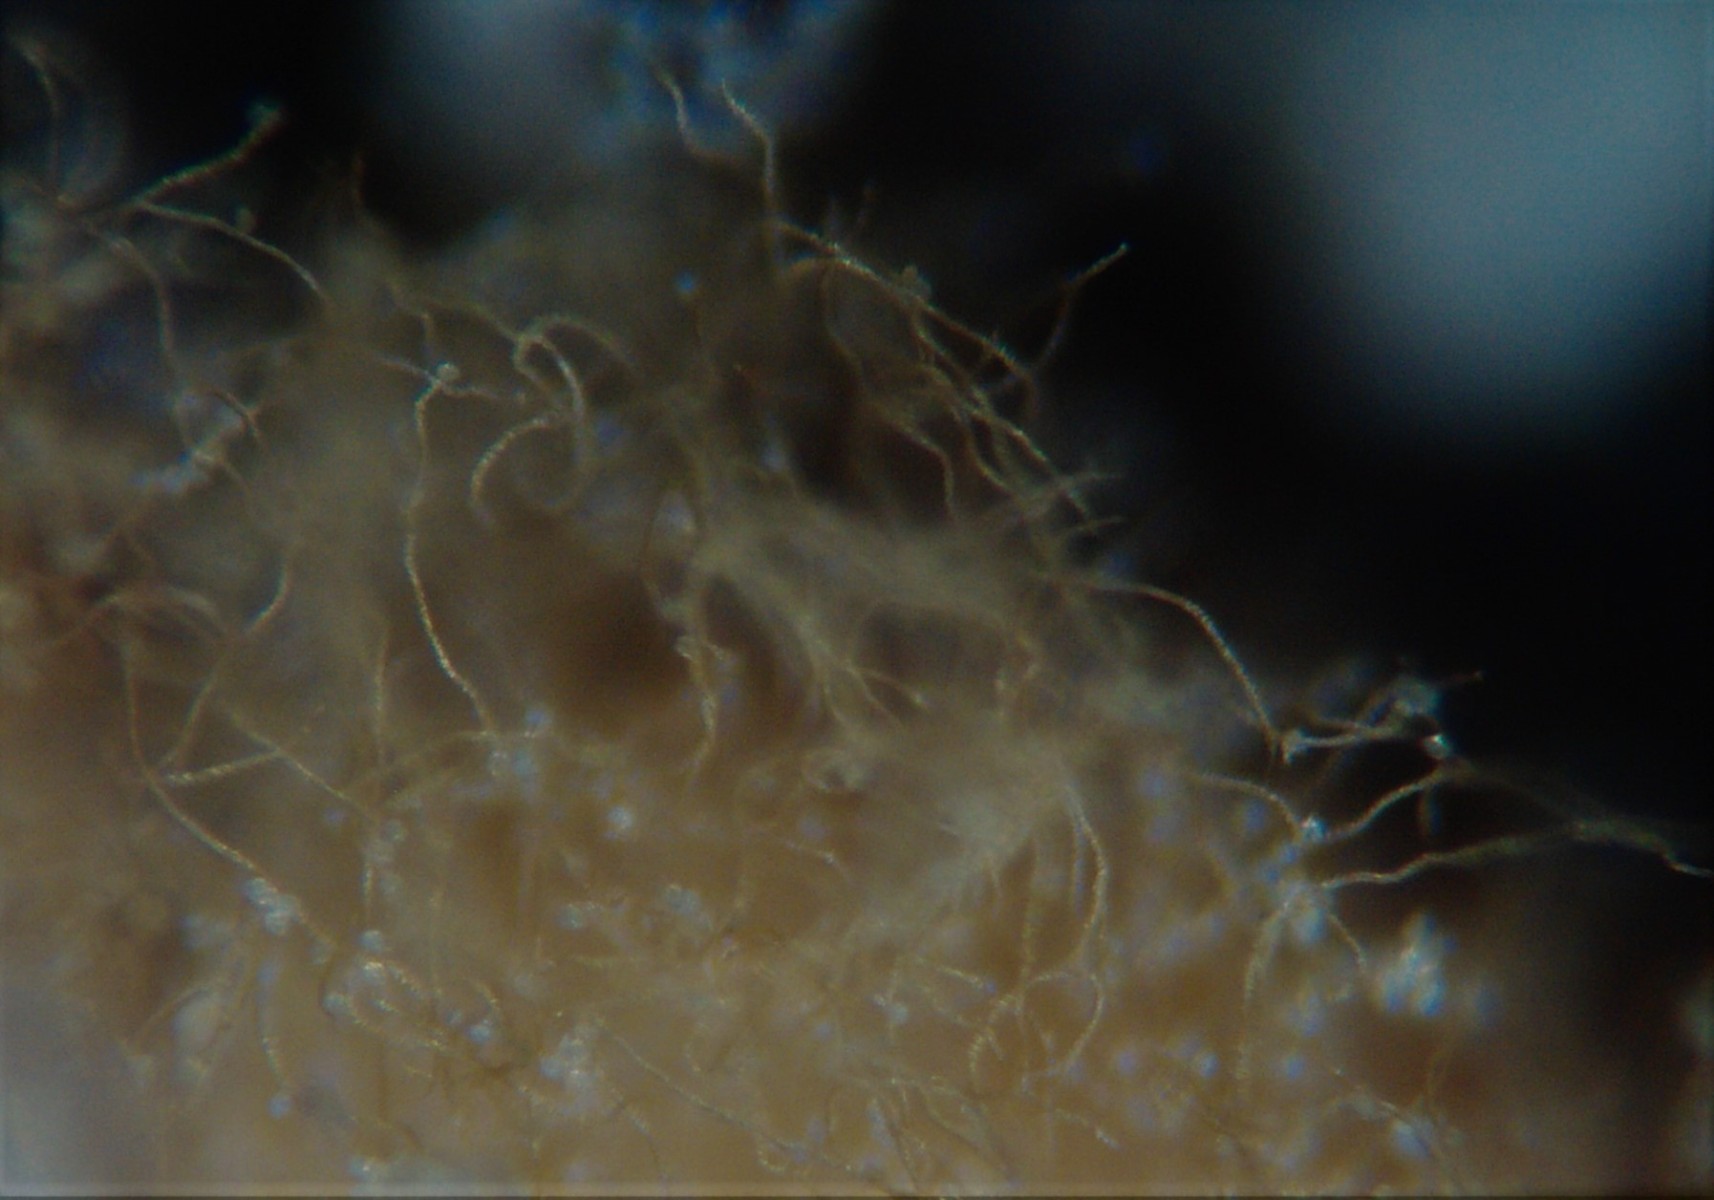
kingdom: Protozoa
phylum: Mycetozoa
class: Myxomycetes
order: Trichiales
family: Trichiaceae
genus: Trichia
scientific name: Trichia crateriformis
